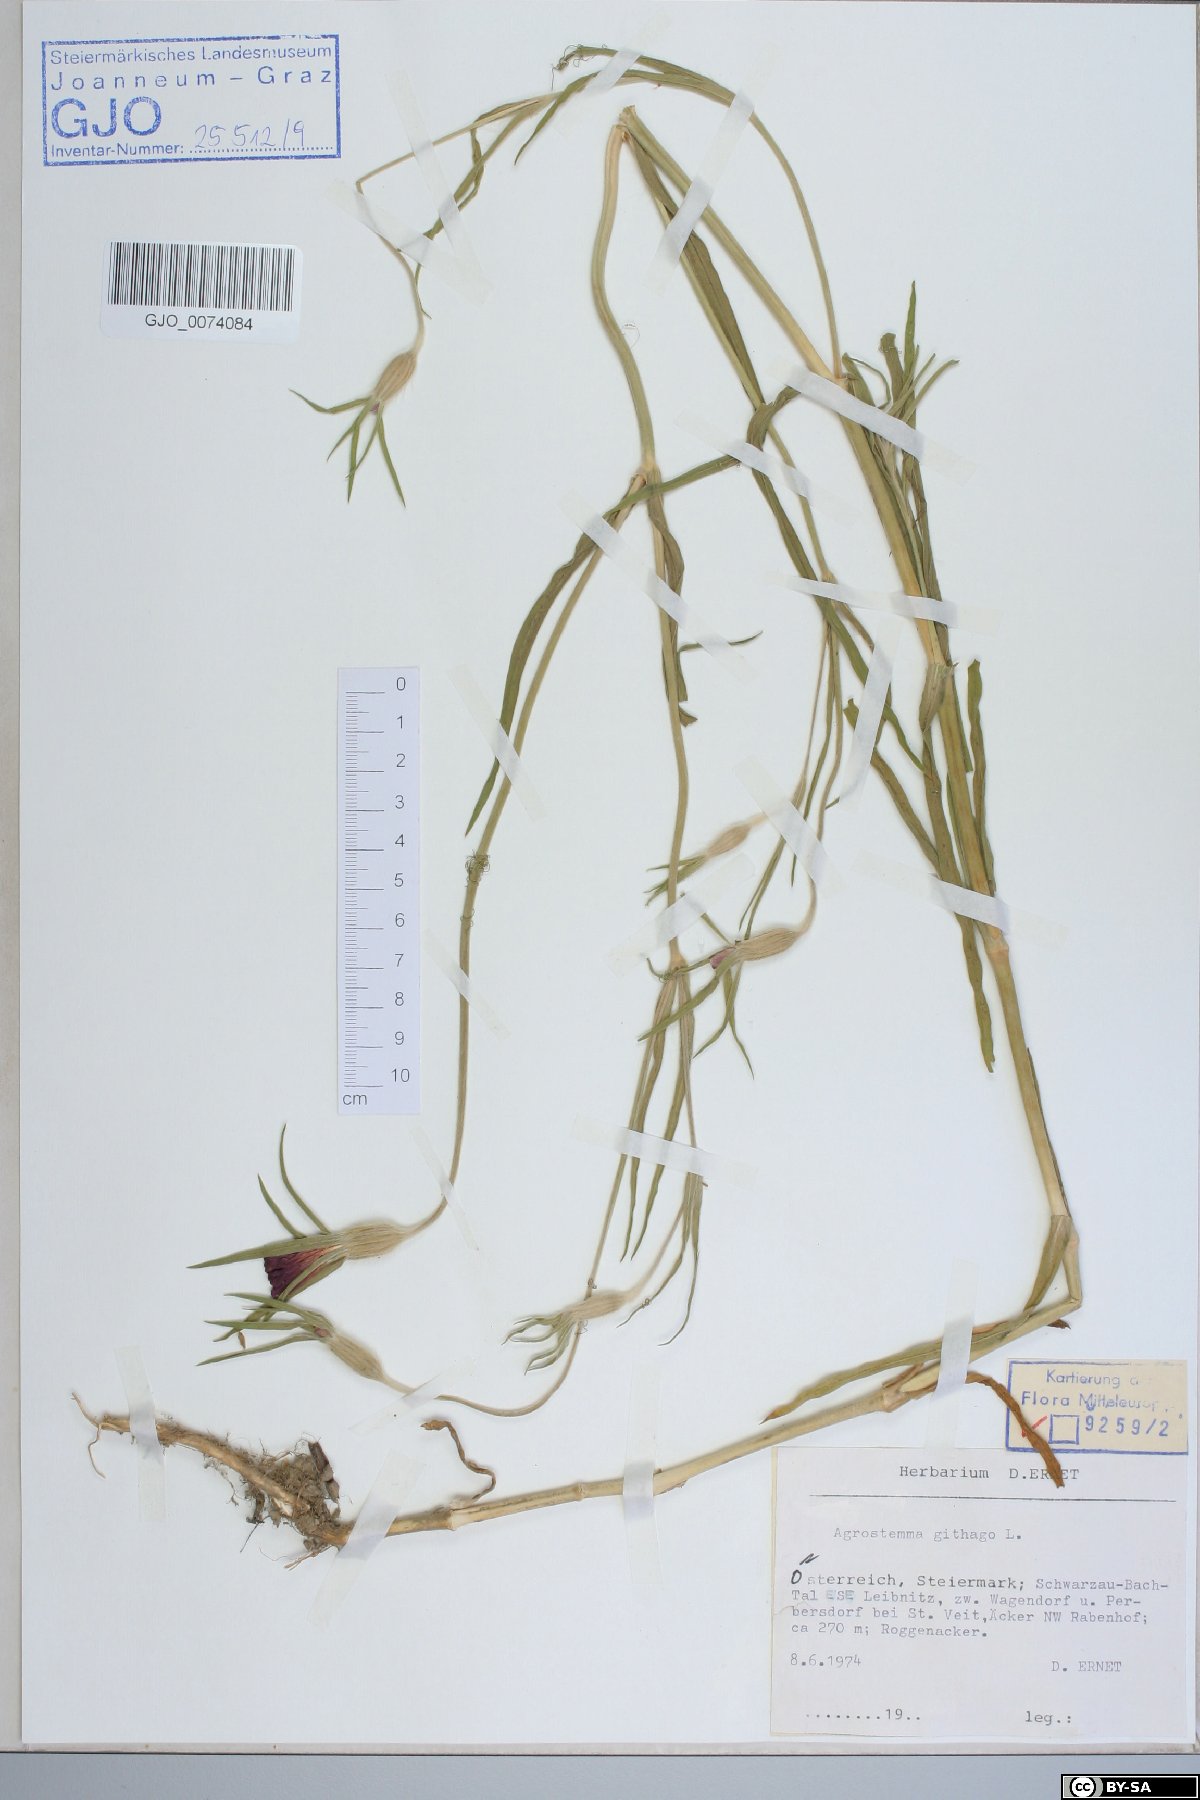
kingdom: Plantae
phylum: Tracheophyta
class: Magnoliopsida
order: Caryophyllales
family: Caryophyllaceae
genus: Agrostemma
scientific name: Agrostemma githago
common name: Common corncockle
